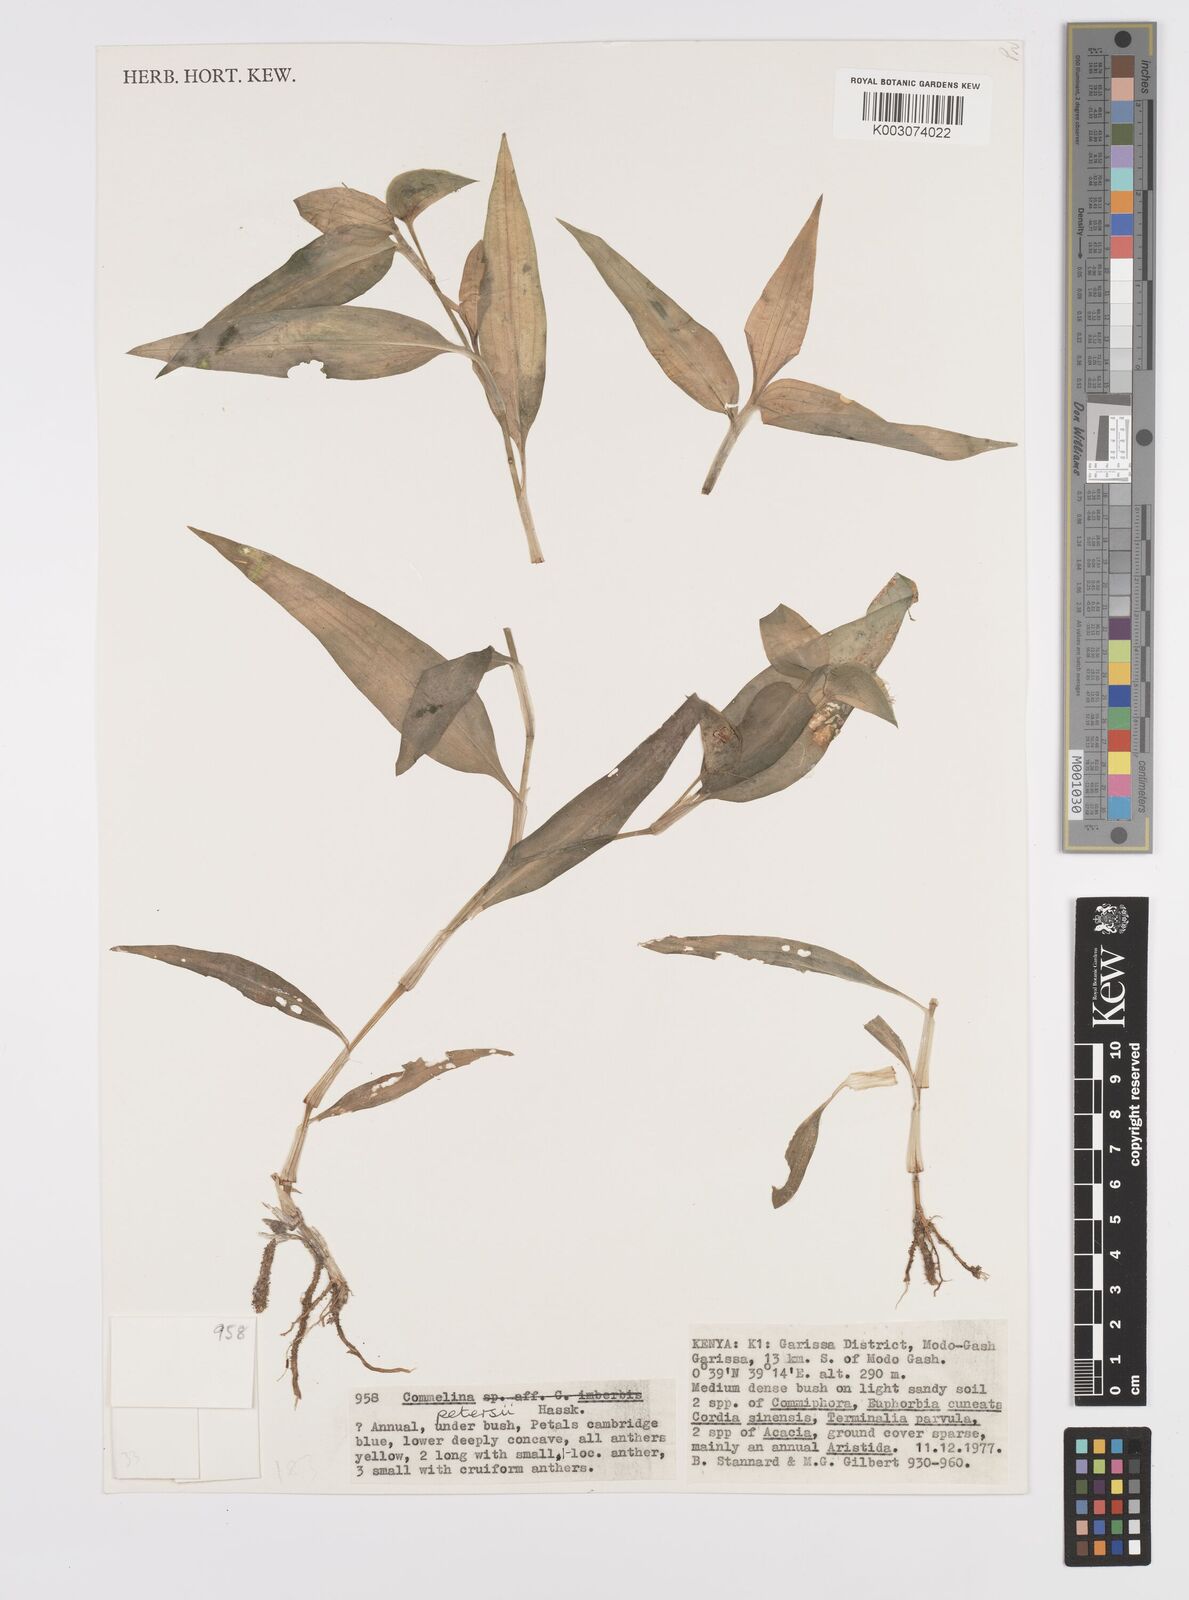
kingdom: Plantae
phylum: Tracheophyta
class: Liliopsida
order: Commelinales
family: Commelinaceae
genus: Commelina
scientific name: Commelina petersii
